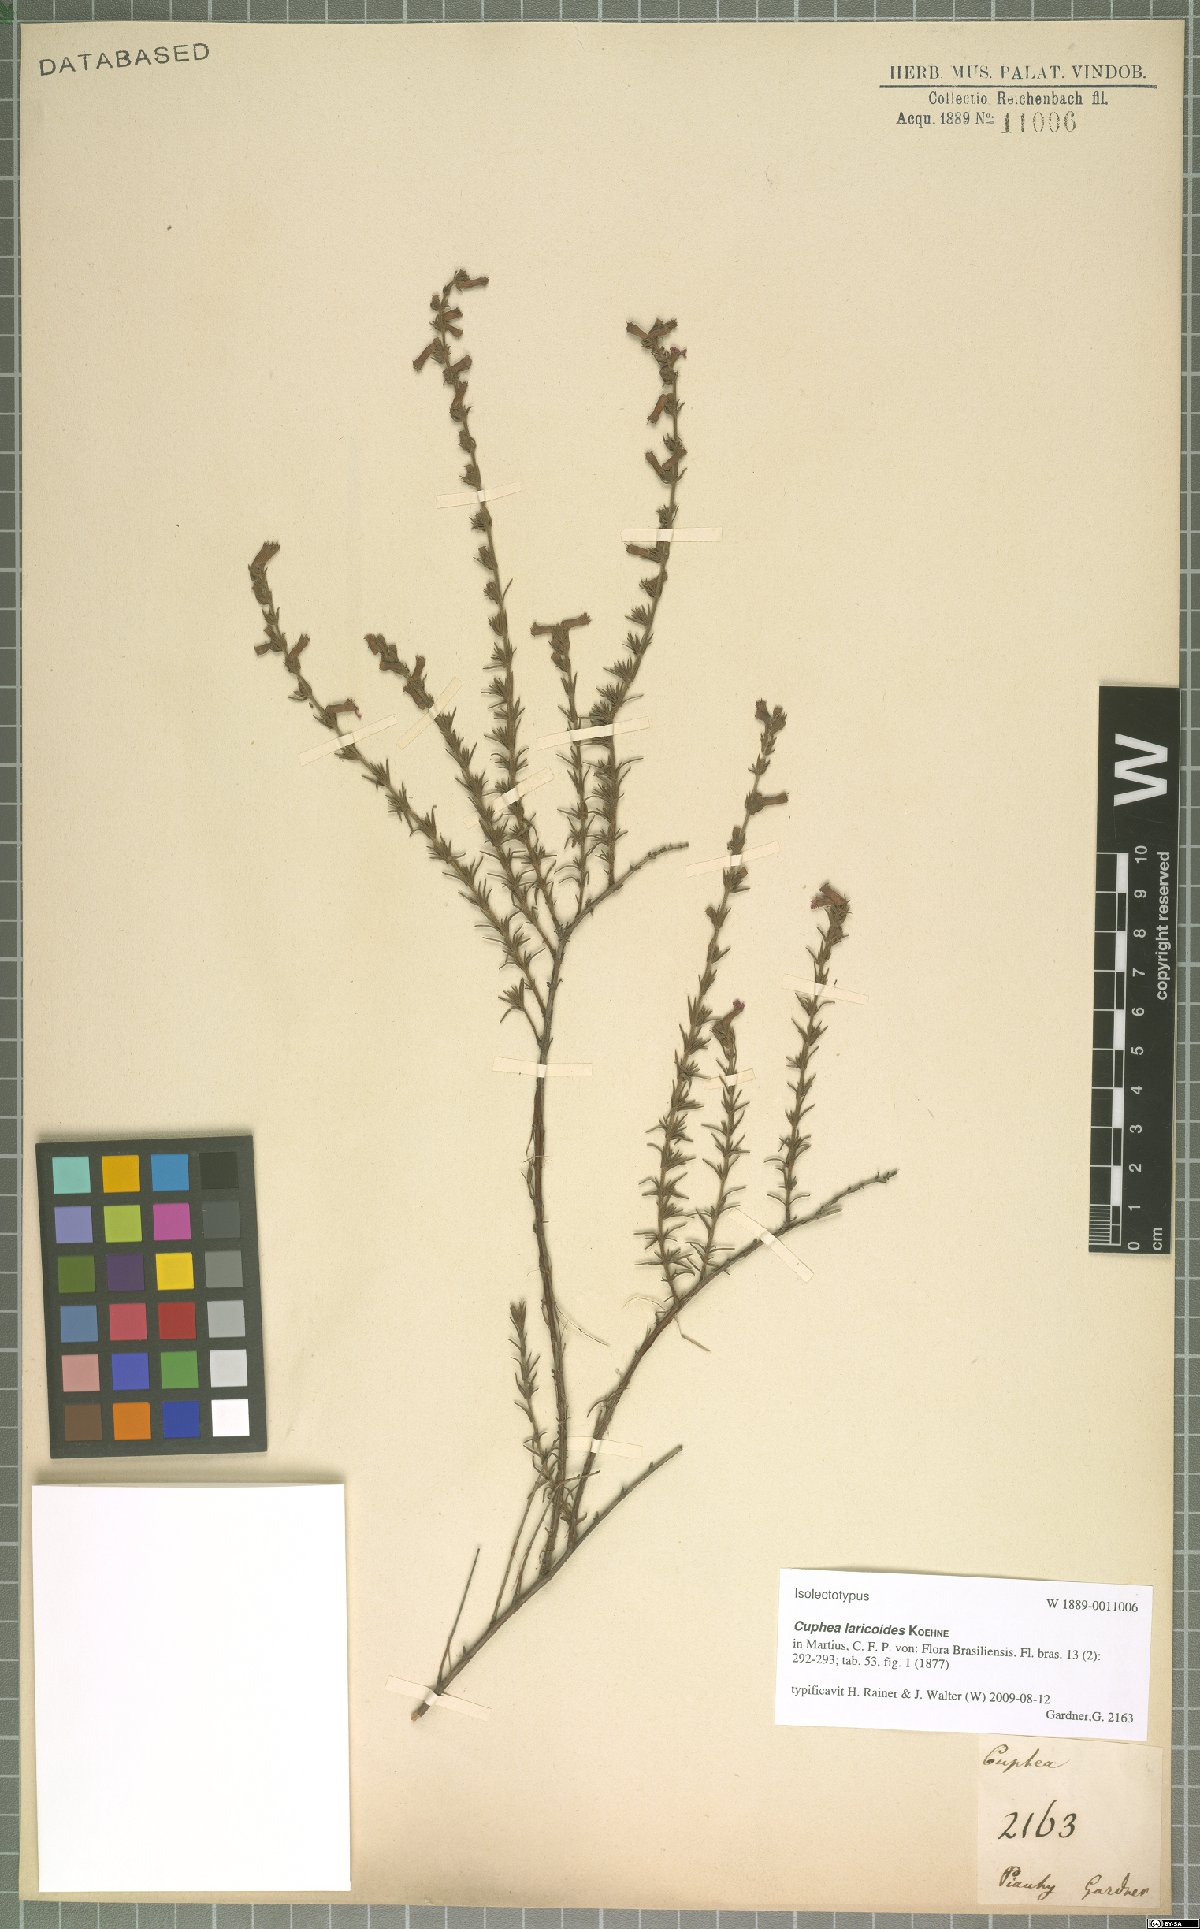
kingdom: Plantae
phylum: Tracheophyta
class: Magnoliopsida
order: Myrtales
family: Lythraceae
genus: Cuphea
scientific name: Cuphea laricoides
